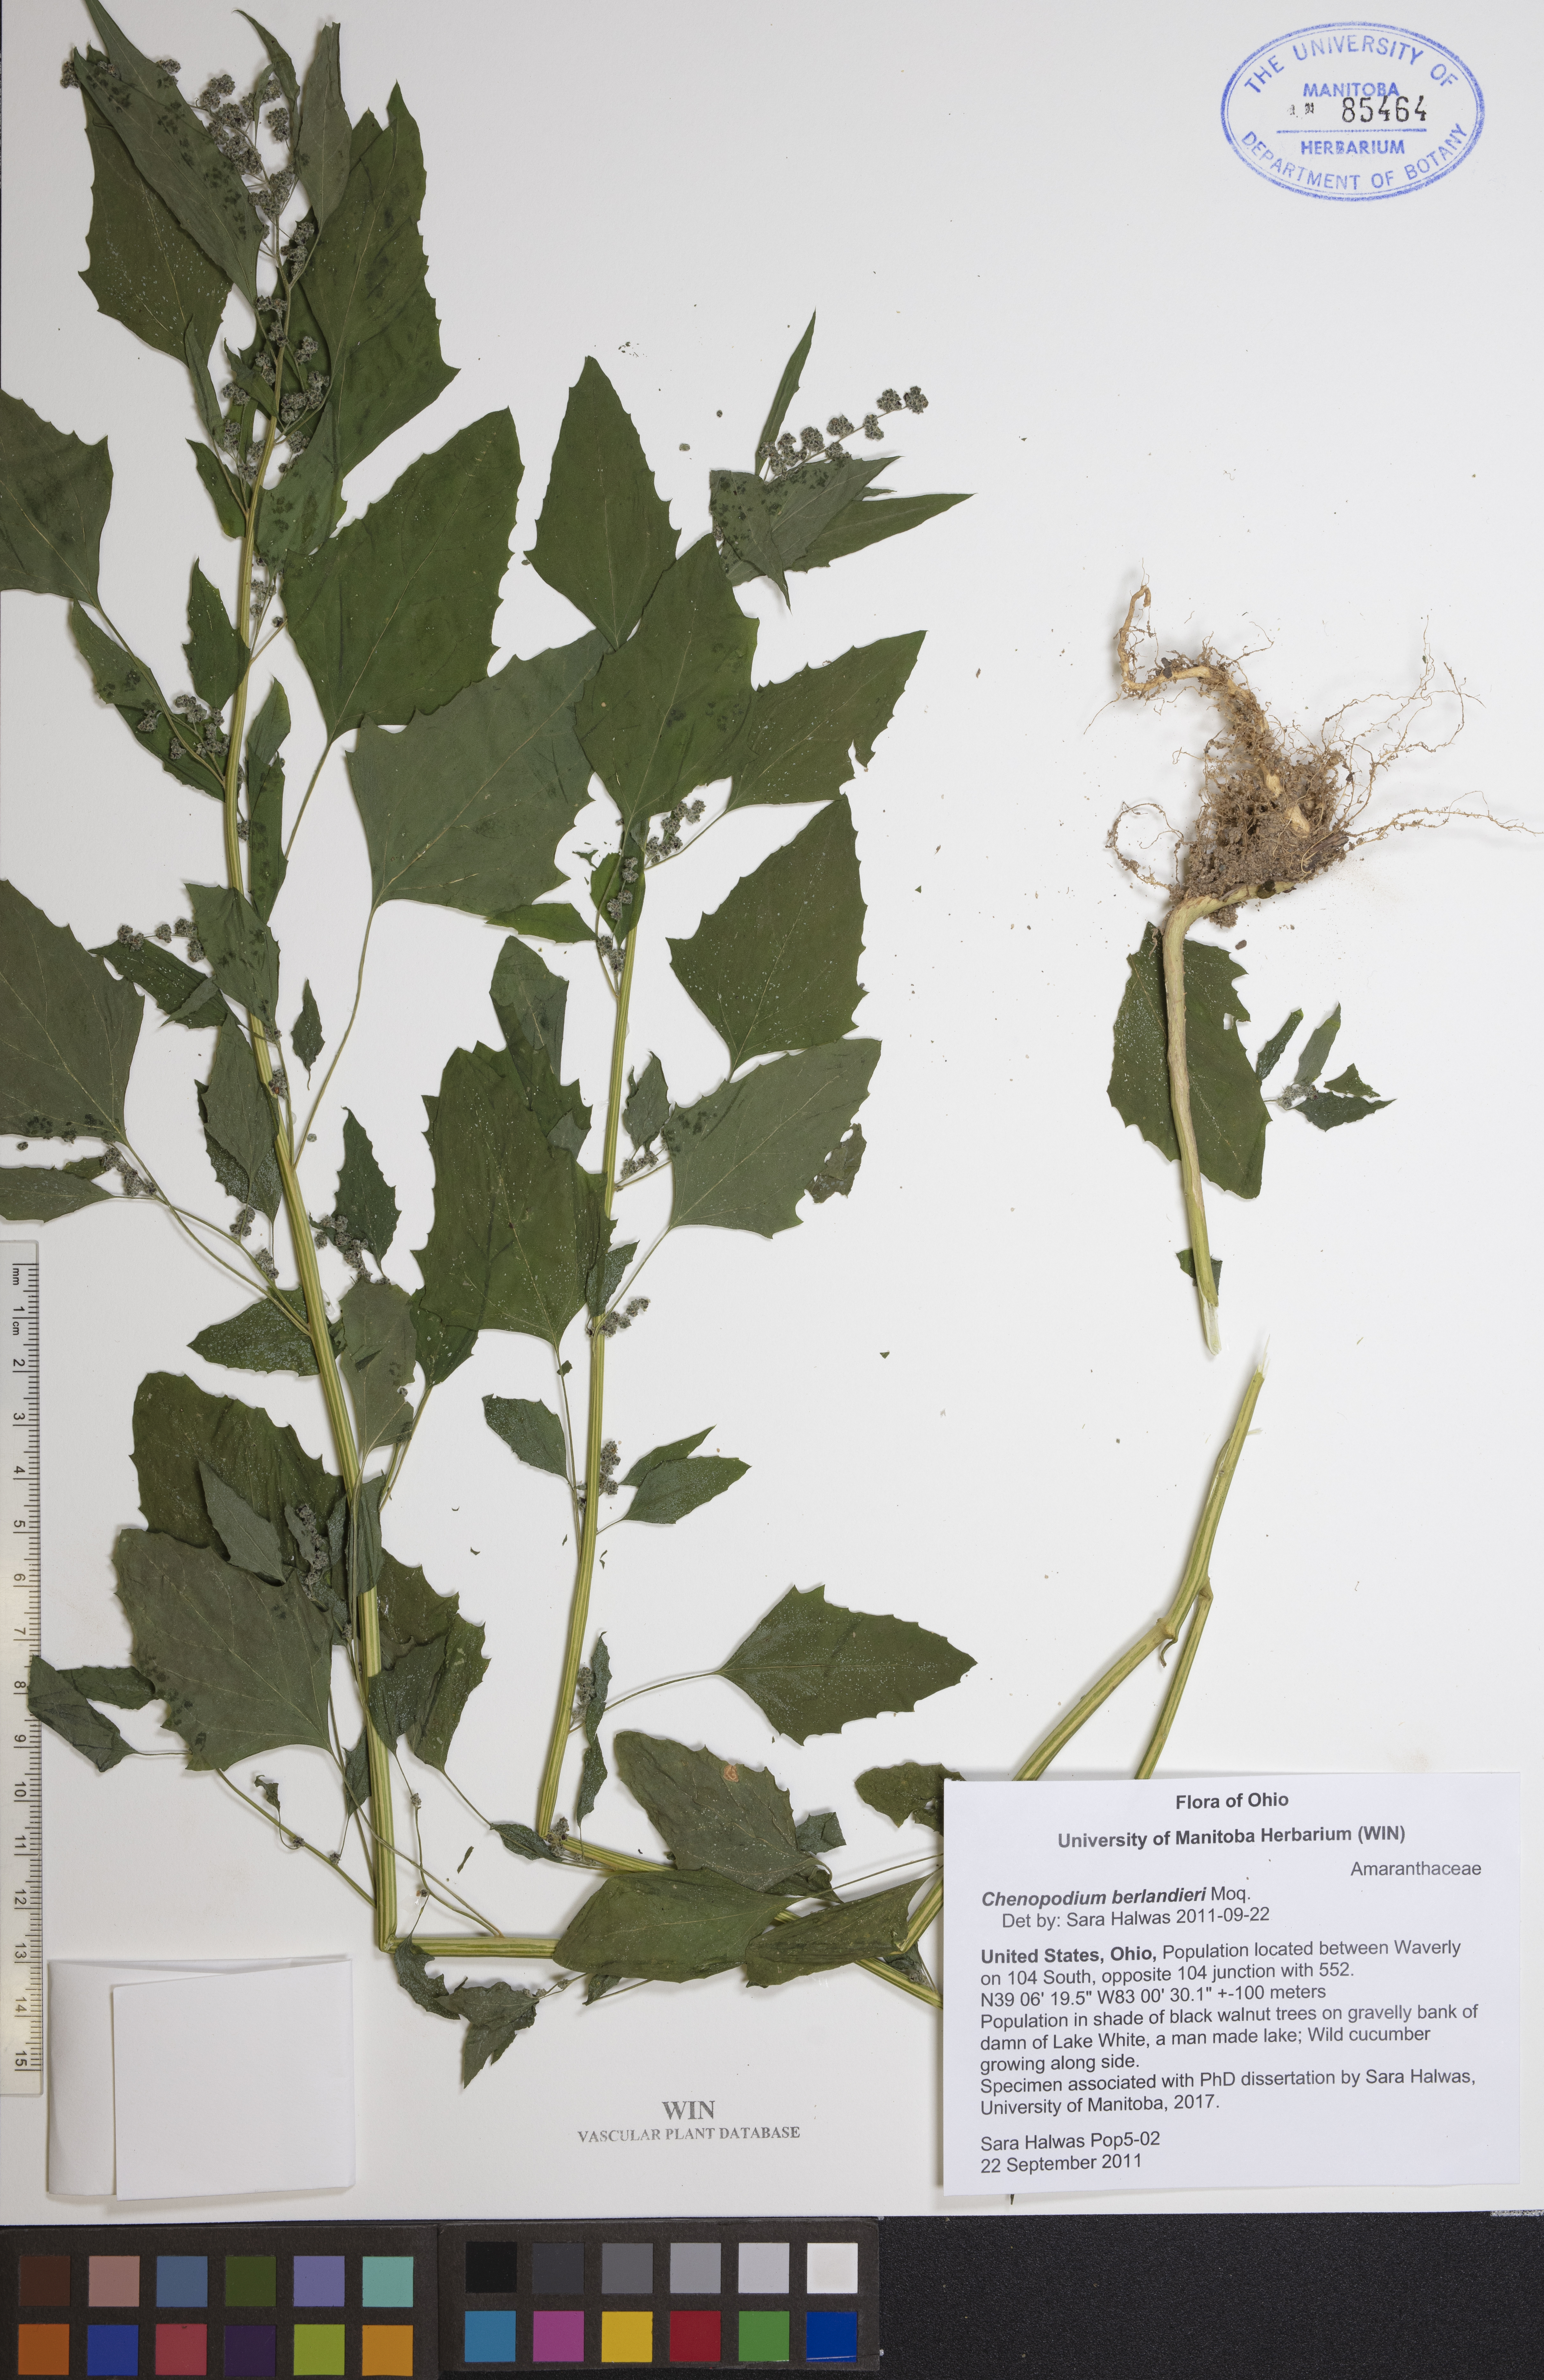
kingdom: Plantae
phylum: Tracheophyta
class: Magnoliopsida
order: Caryophyllales
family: Amaranthaceae
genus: Chenopodium
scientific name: Chenopodium berlandieri
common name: Pit-seed goosefoot
